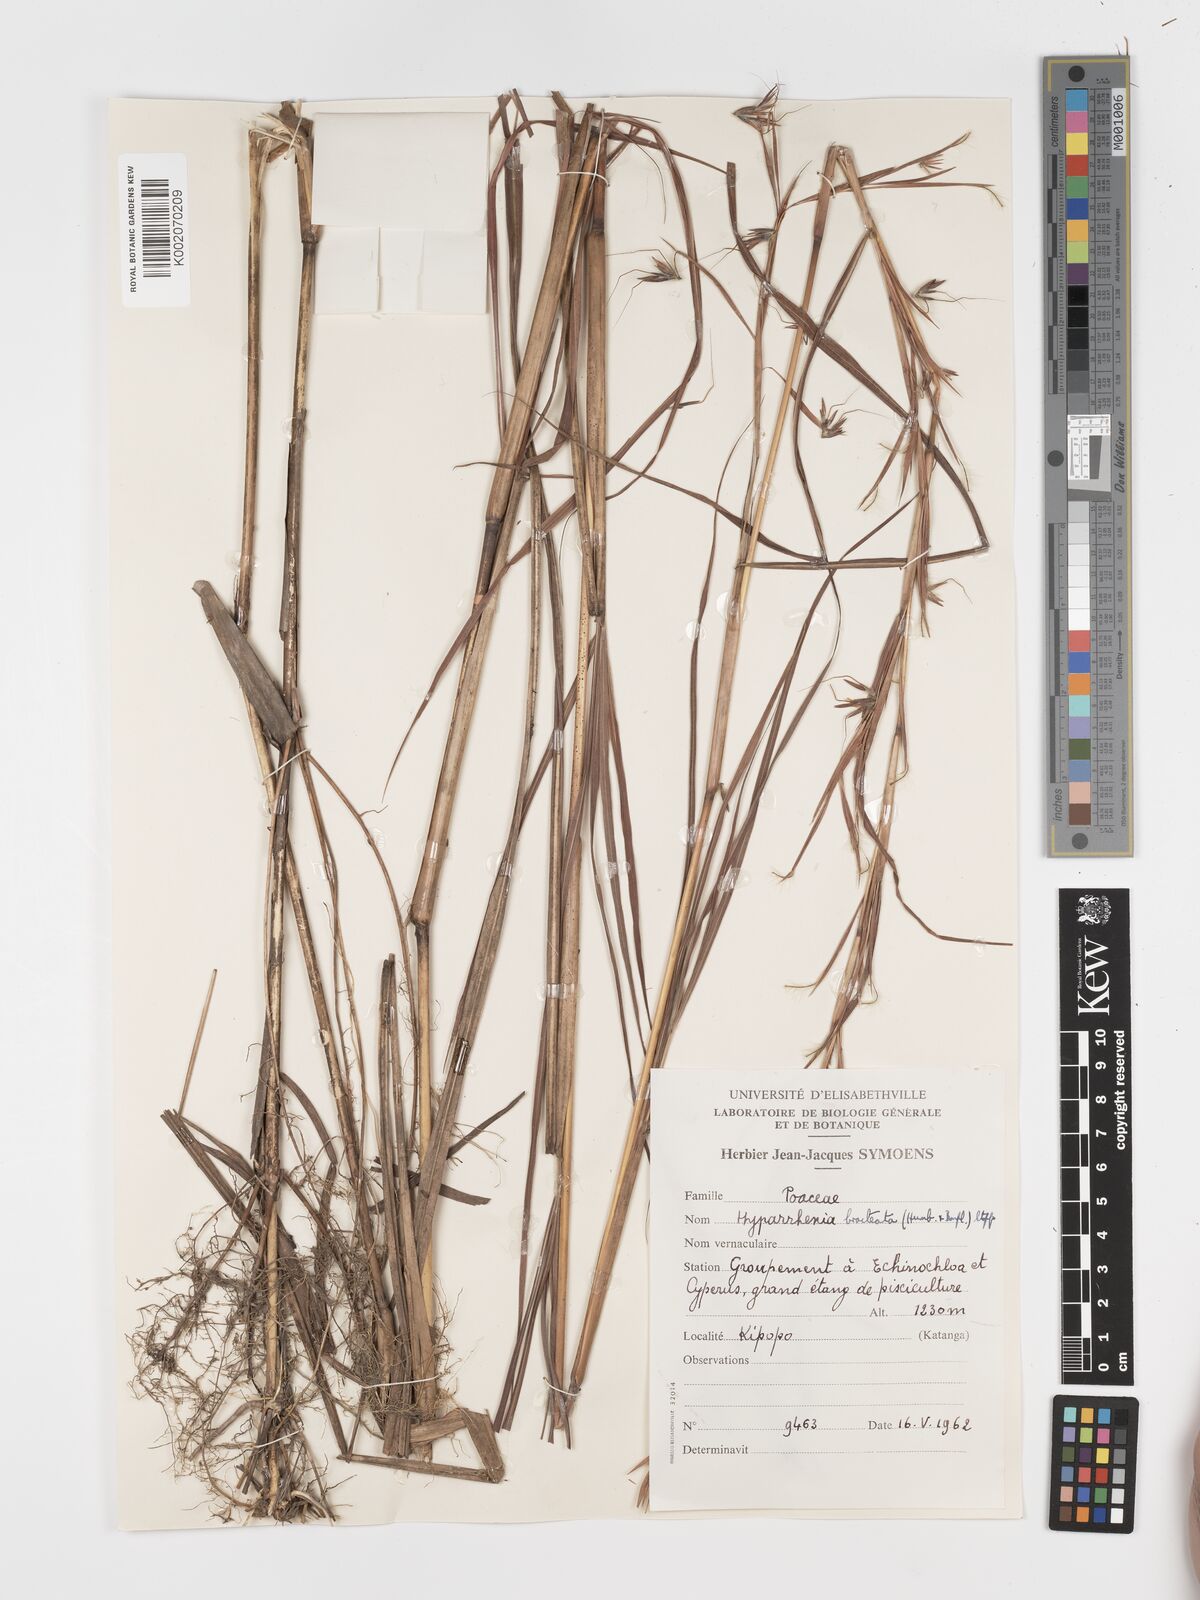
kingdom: Plantae
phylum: Tracheophyta
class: Liliopsida
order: Poales
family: Poaceae
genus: Hyparrhenia
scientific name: Hyparrhenia bracteata
